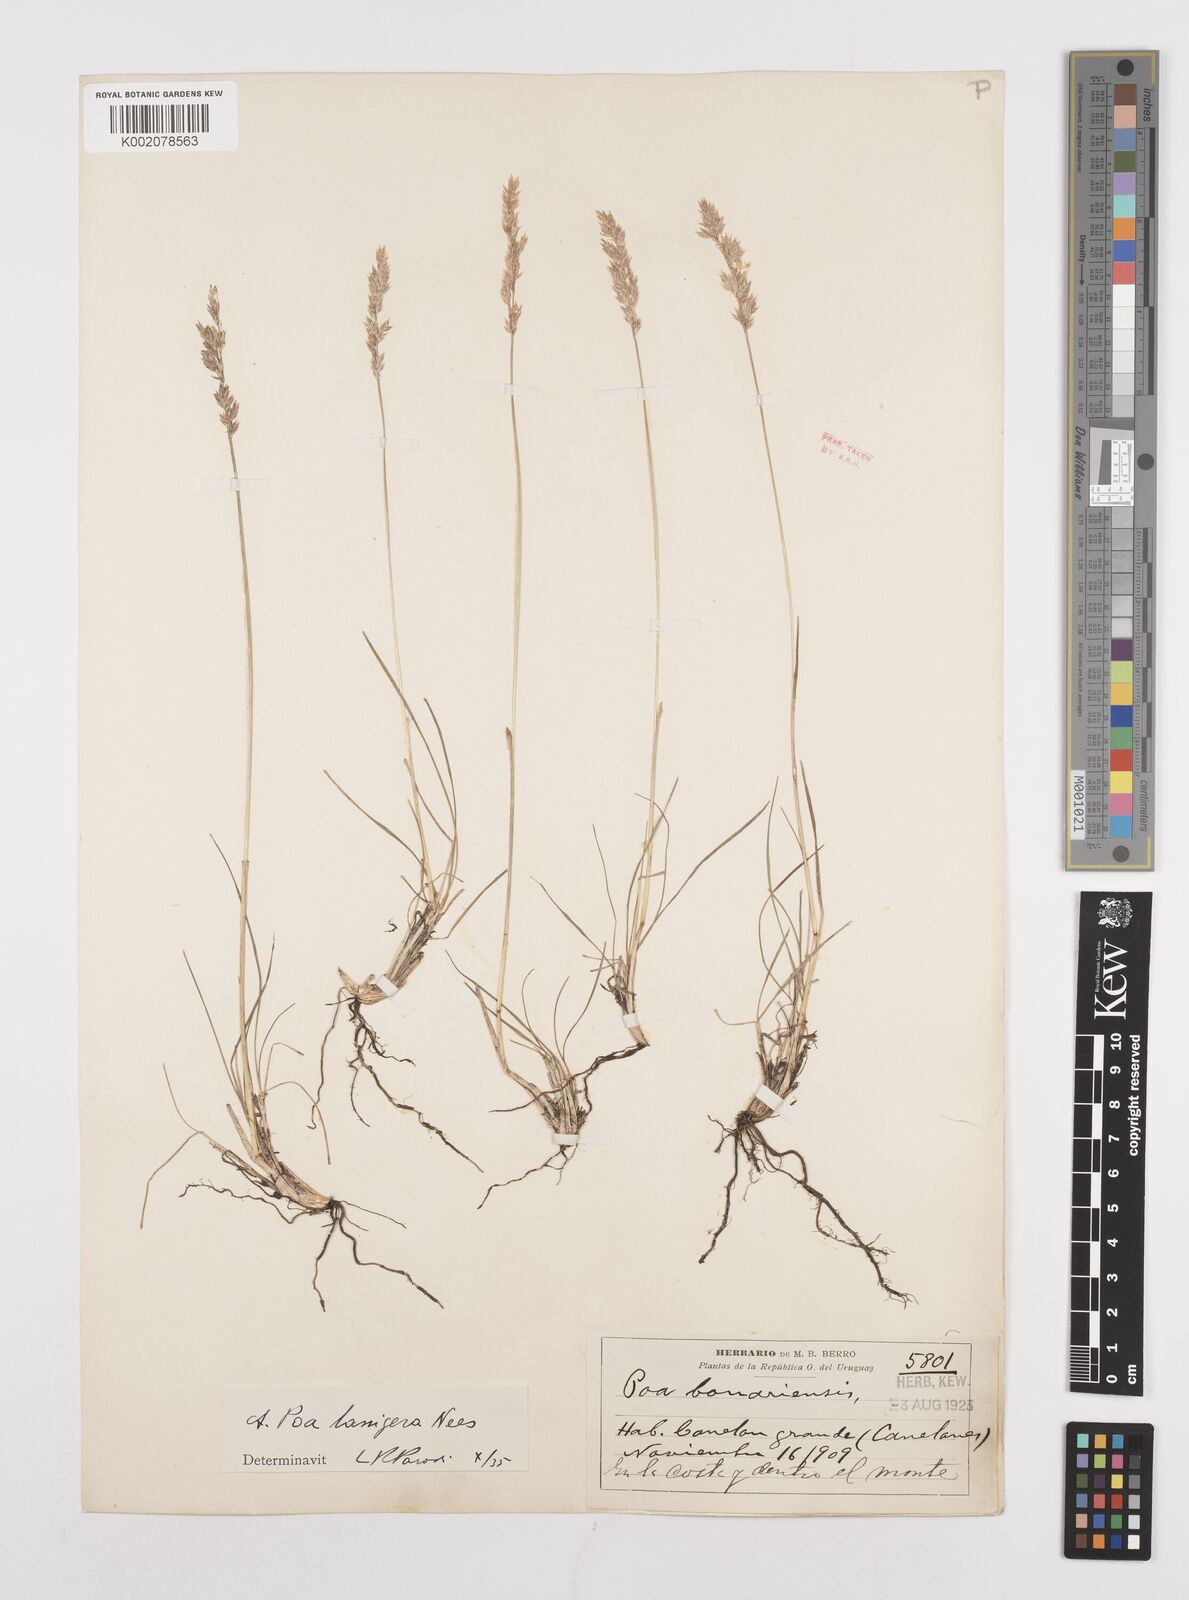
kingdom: Plantae
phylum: Tracheophyta
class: Liliopsida
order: Poales
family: Poaceae
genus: Poa
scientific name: Poa lanuginosa
